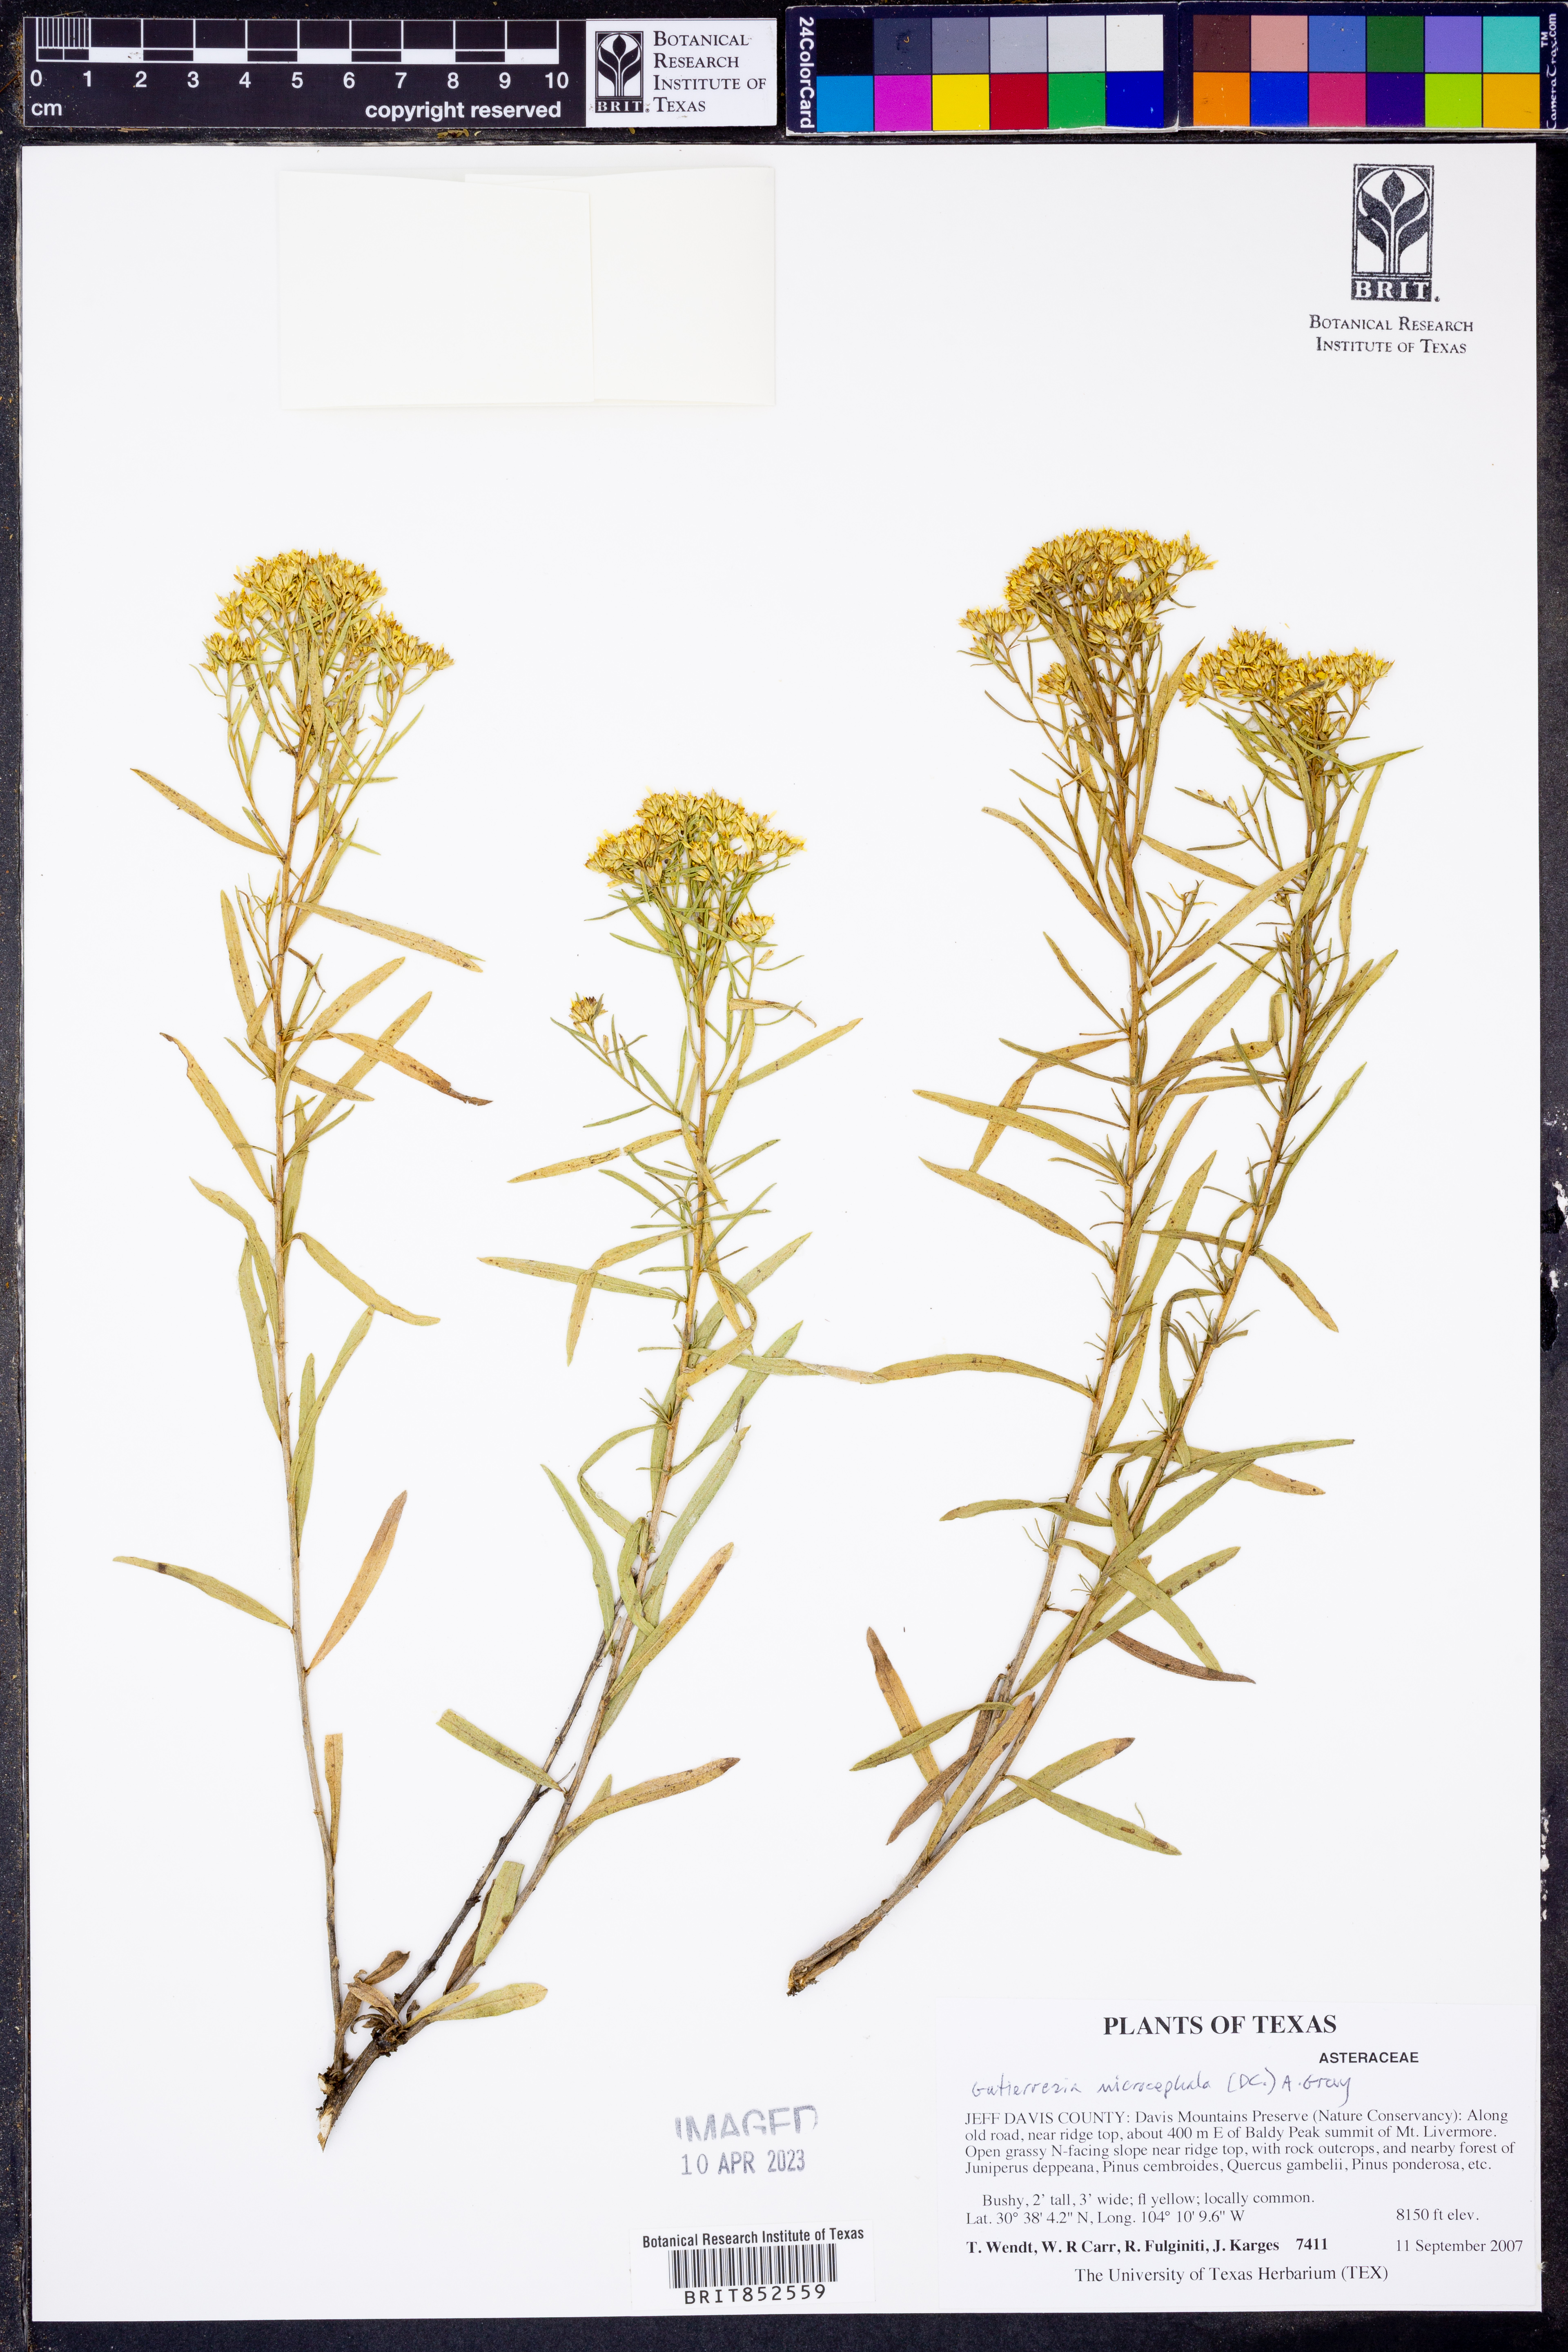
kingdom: Plantae
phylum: Tracheophyta
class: Magnoliopsida
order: Asterales
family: Asteraceae
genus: Gutierrezia
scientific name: Gutierrezia microcephala
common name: Thread snakeweed
